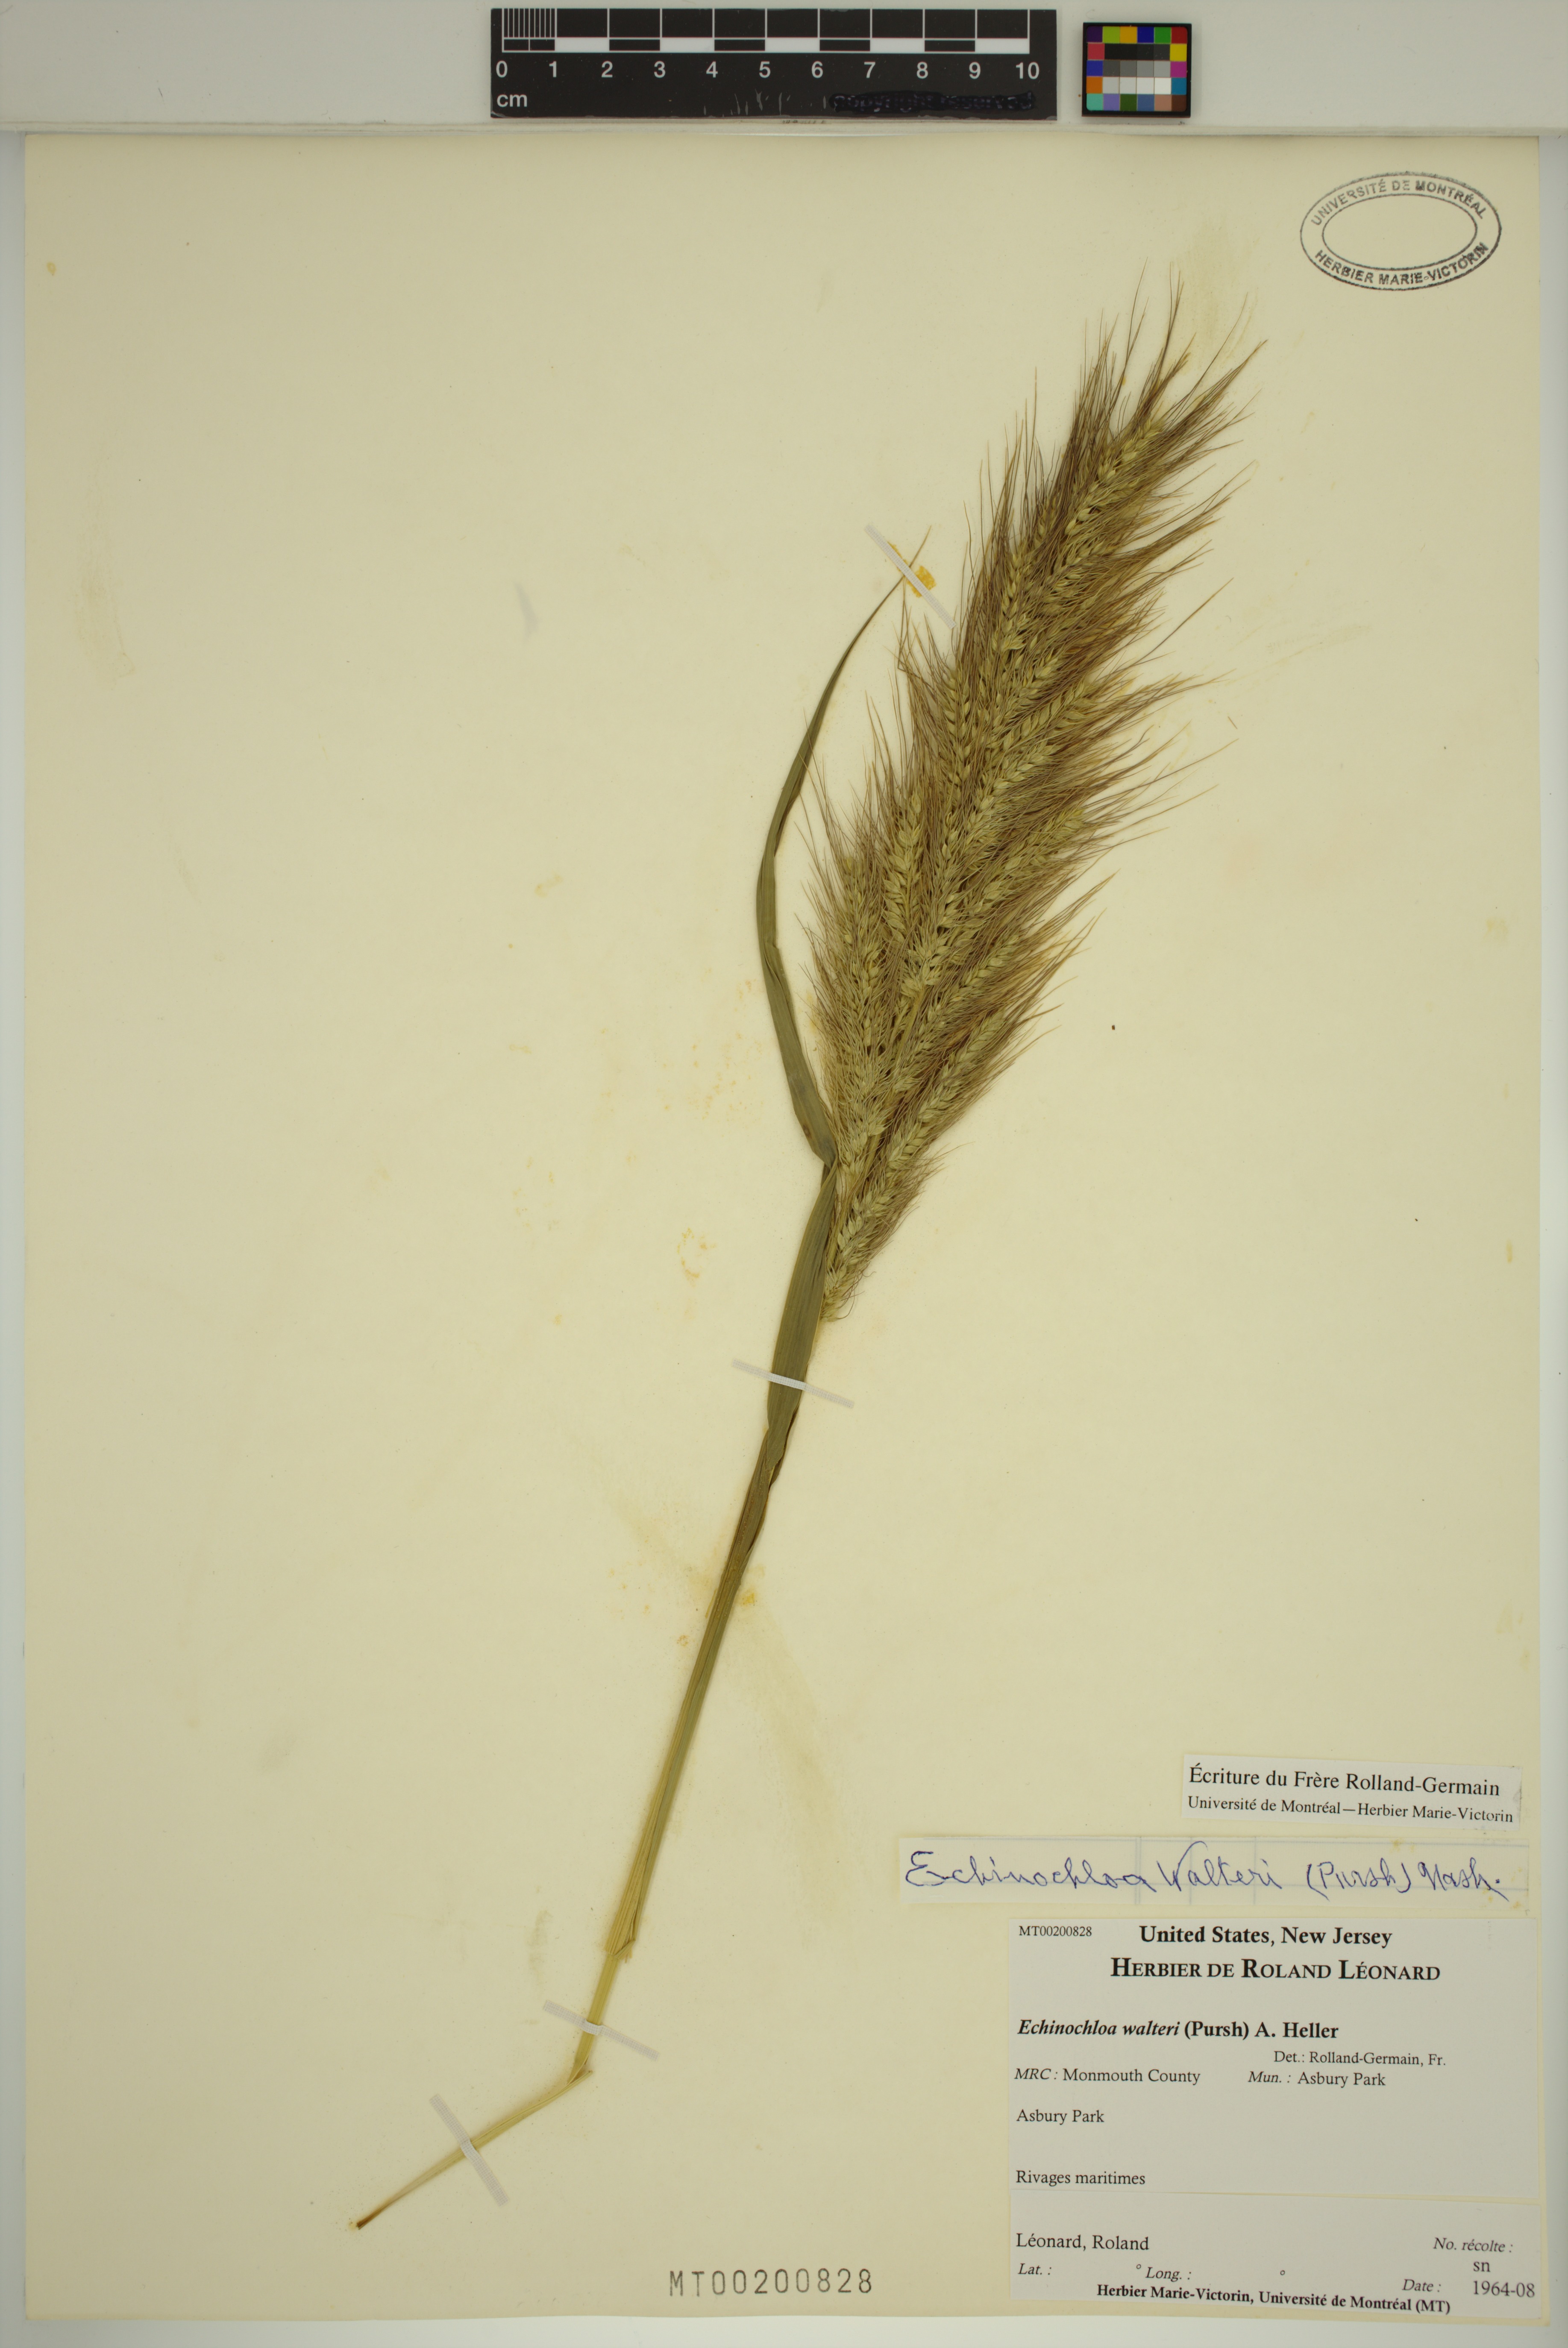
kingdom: Plantae
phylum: Tracheophyta
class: Liliopsida
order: Poales
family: Poaceae
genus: Echinochloa
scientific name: Echinochloa walteri
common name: Coast barnyard grass
